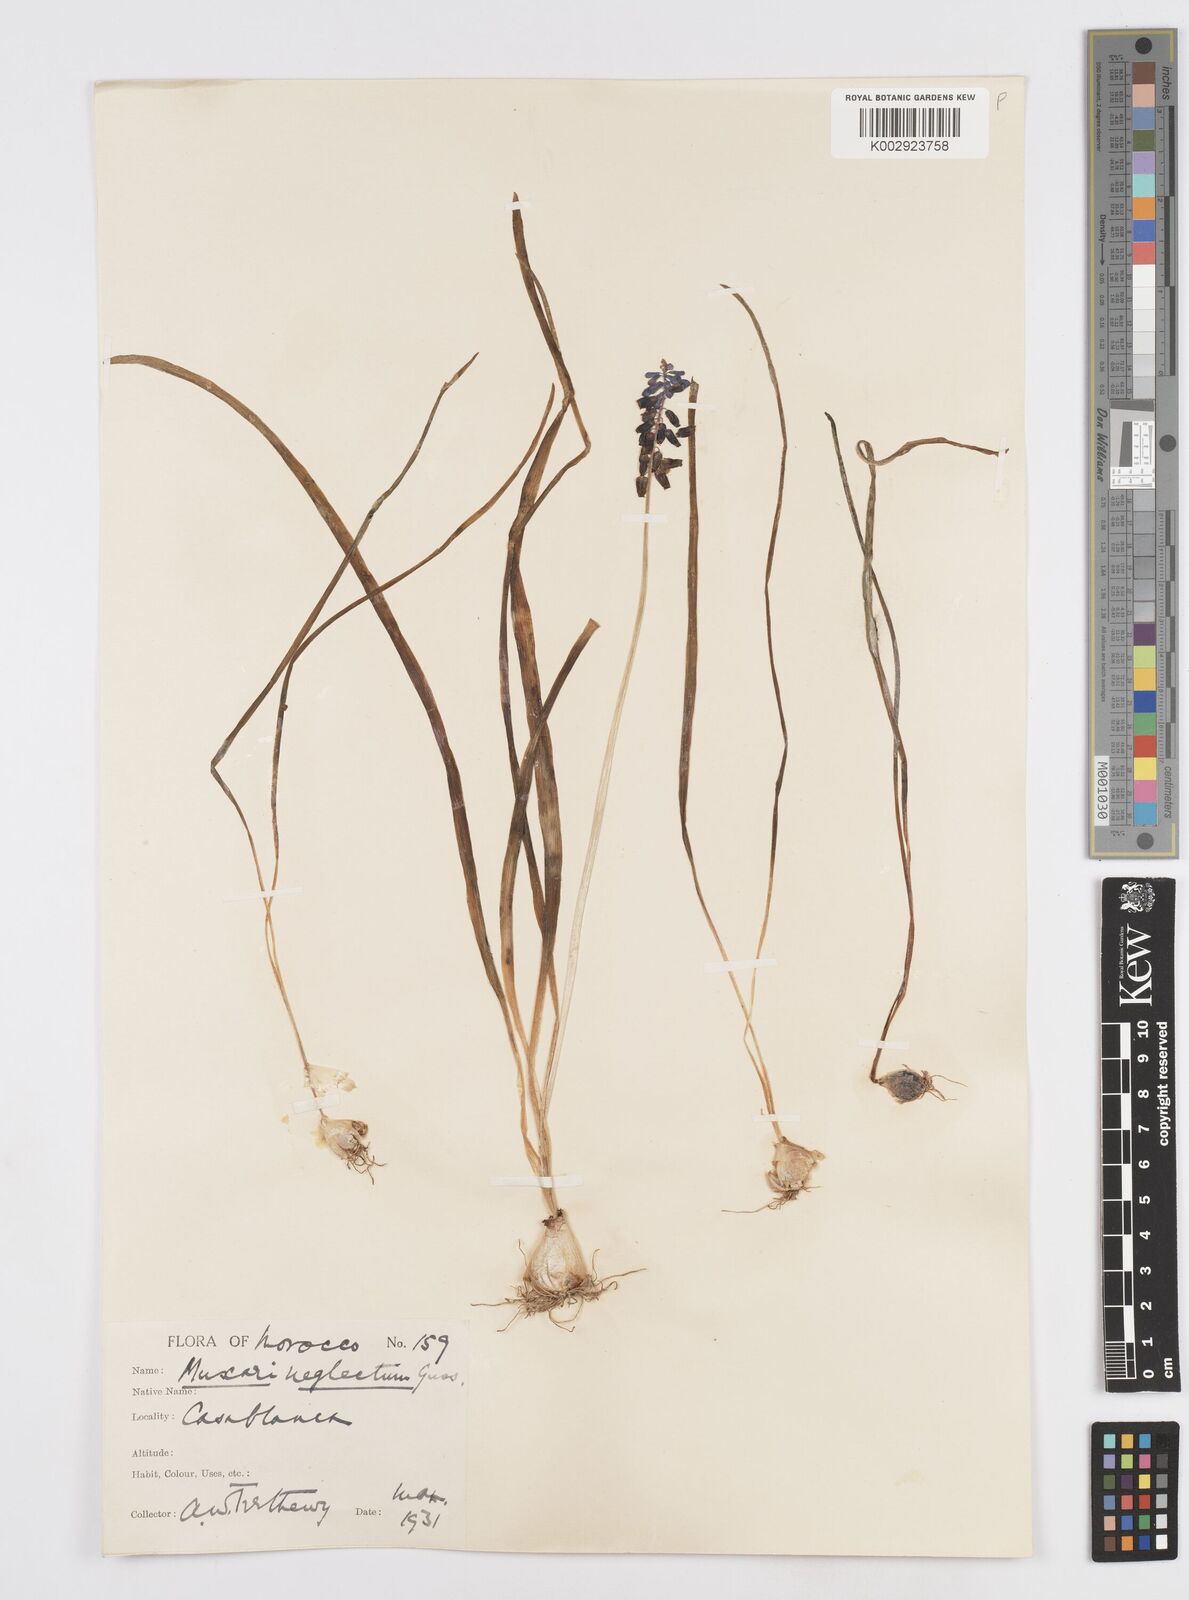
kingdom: Plantae
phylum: Tracheophyta
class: Liliopsida
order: Asparagales
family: Asparagaceae
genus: Muscari
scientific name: Muscari neglectum
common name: Grape-hyacinth
